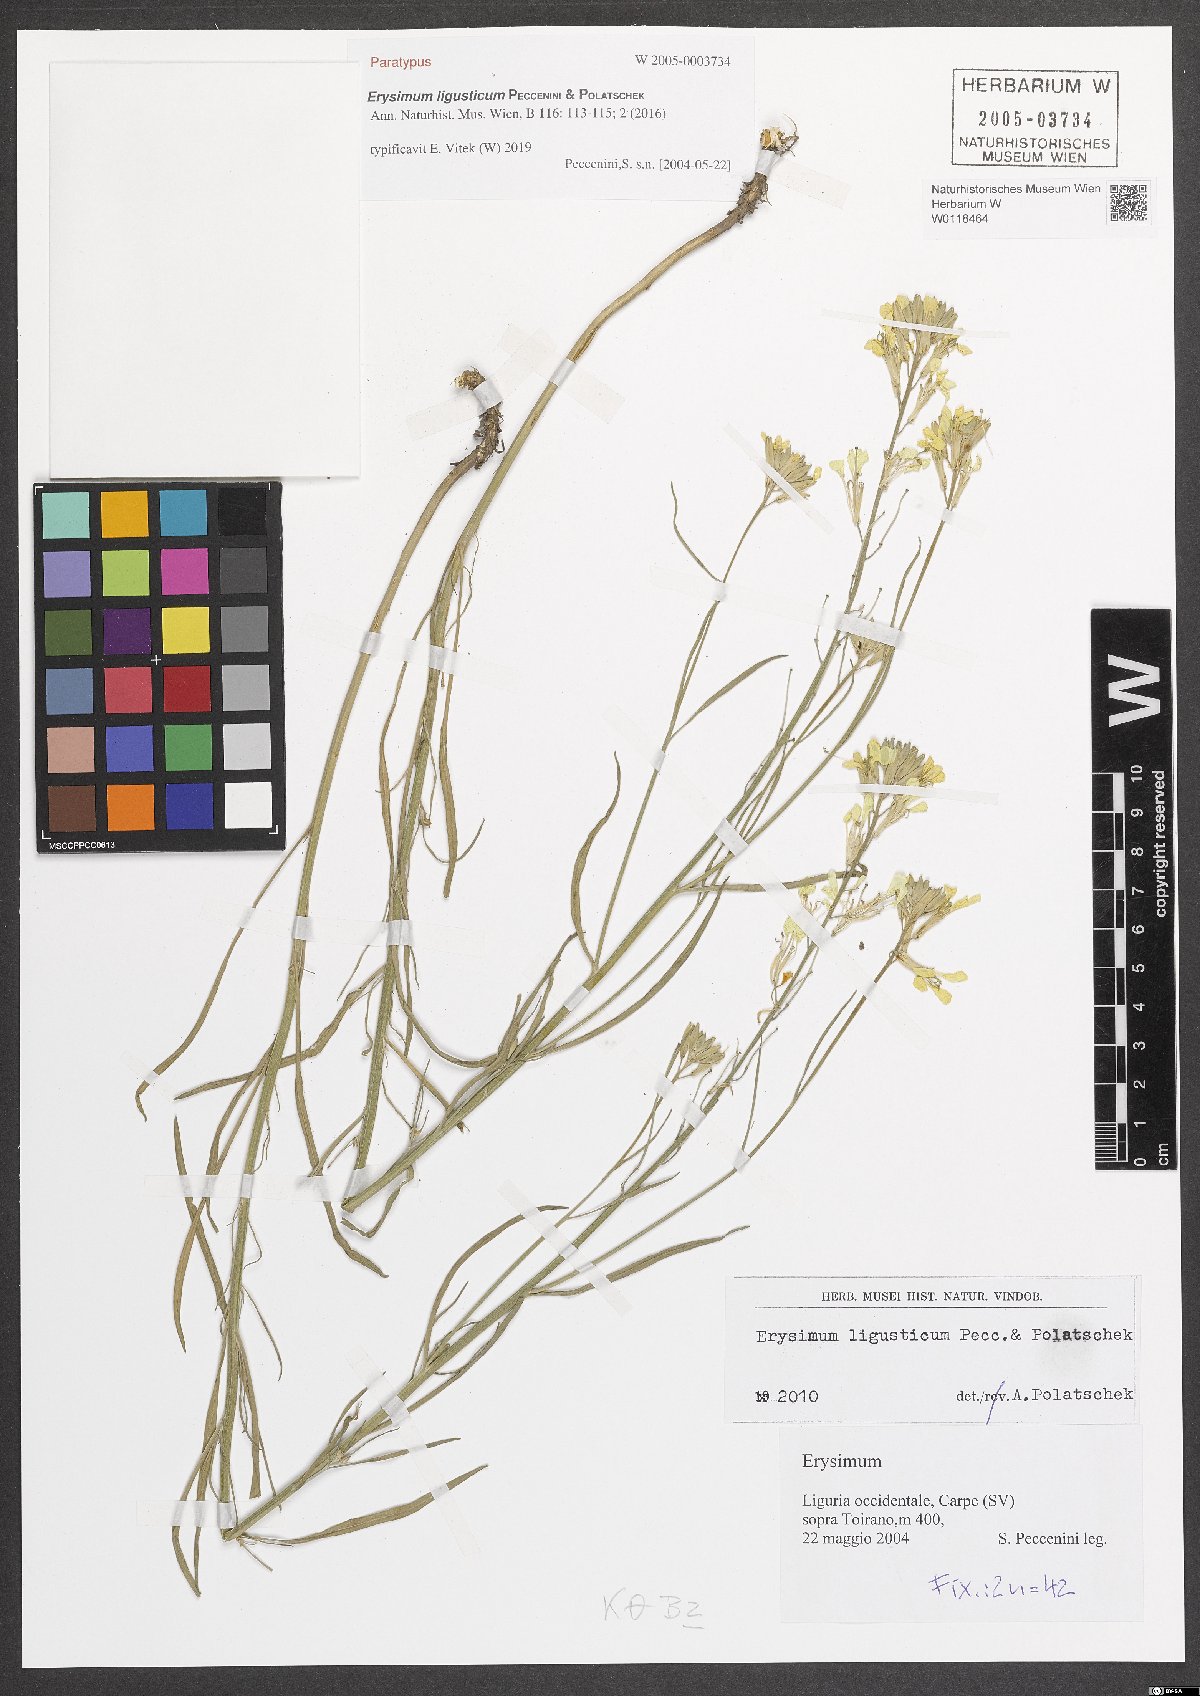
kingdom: Plantae
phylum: Tracheophyta
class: Magnoliopsida
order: Brassicales
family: Brassicaceae
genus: Erysimum
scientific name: Erysimum ligusticum
